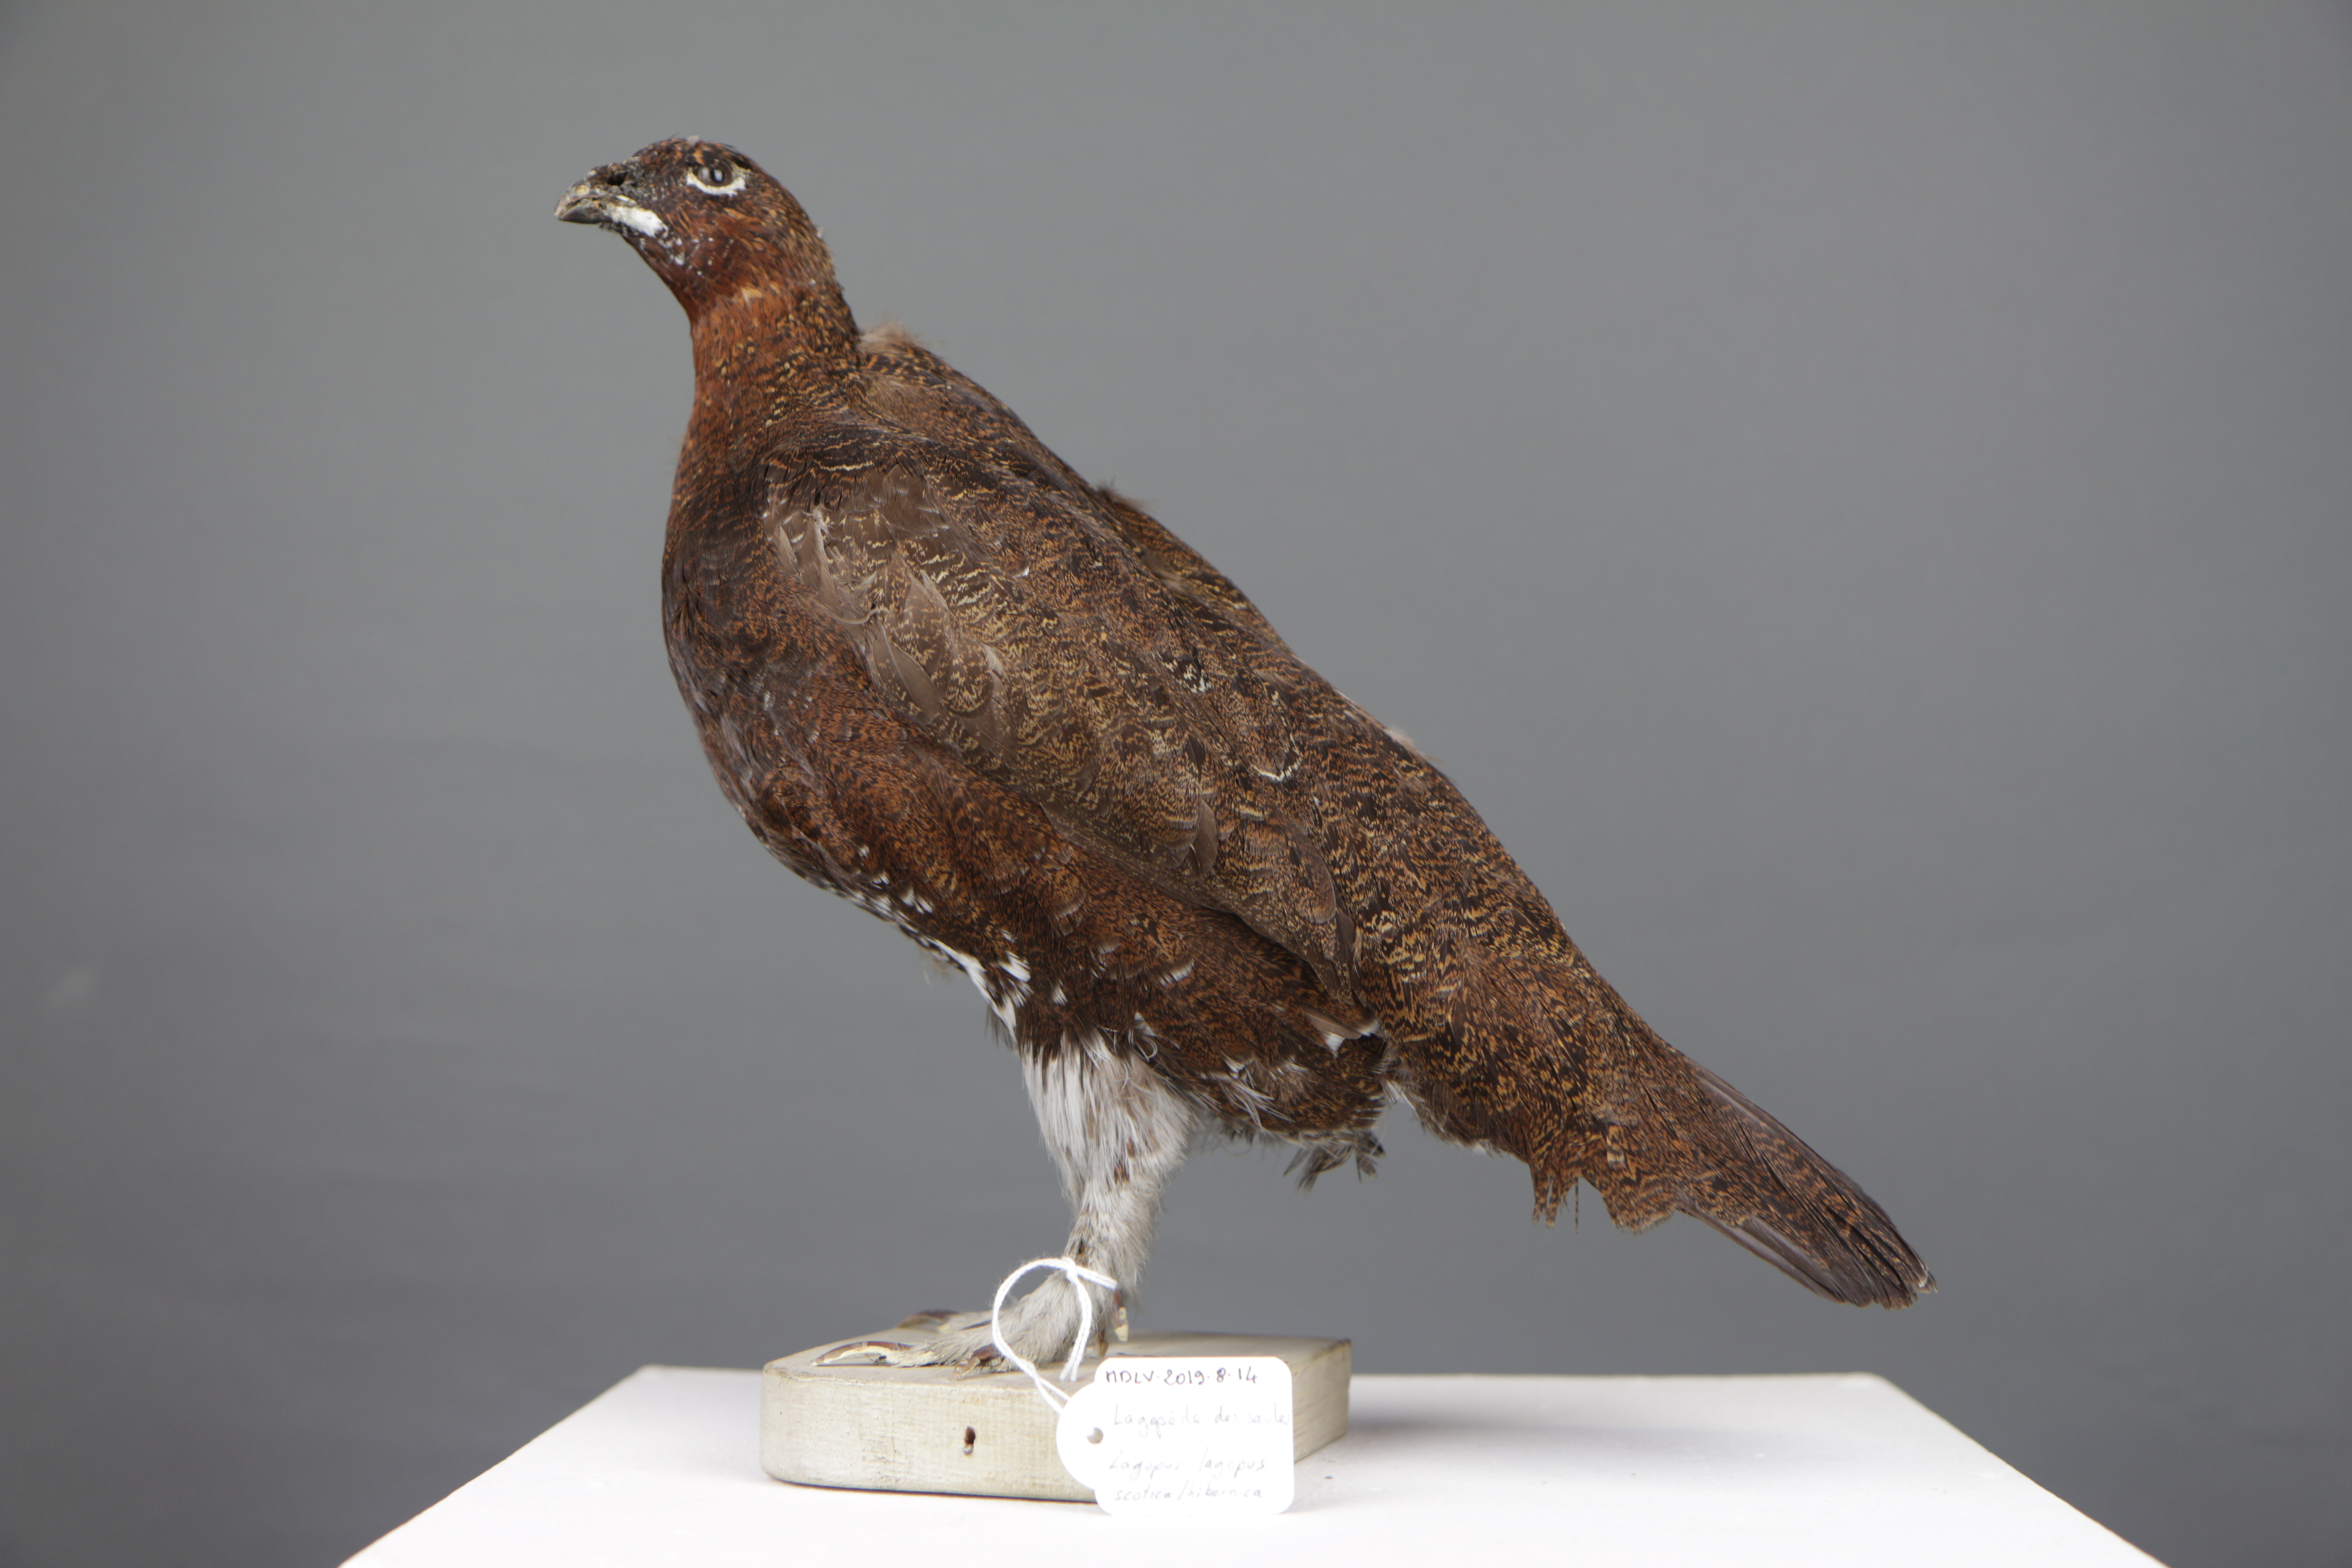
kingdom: Animalia
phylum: Chordata
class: Aves
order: Galliformes
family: Phasianidae
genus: Lagopus
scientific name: Lagopus lagopus
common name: Willow ptarmigan
